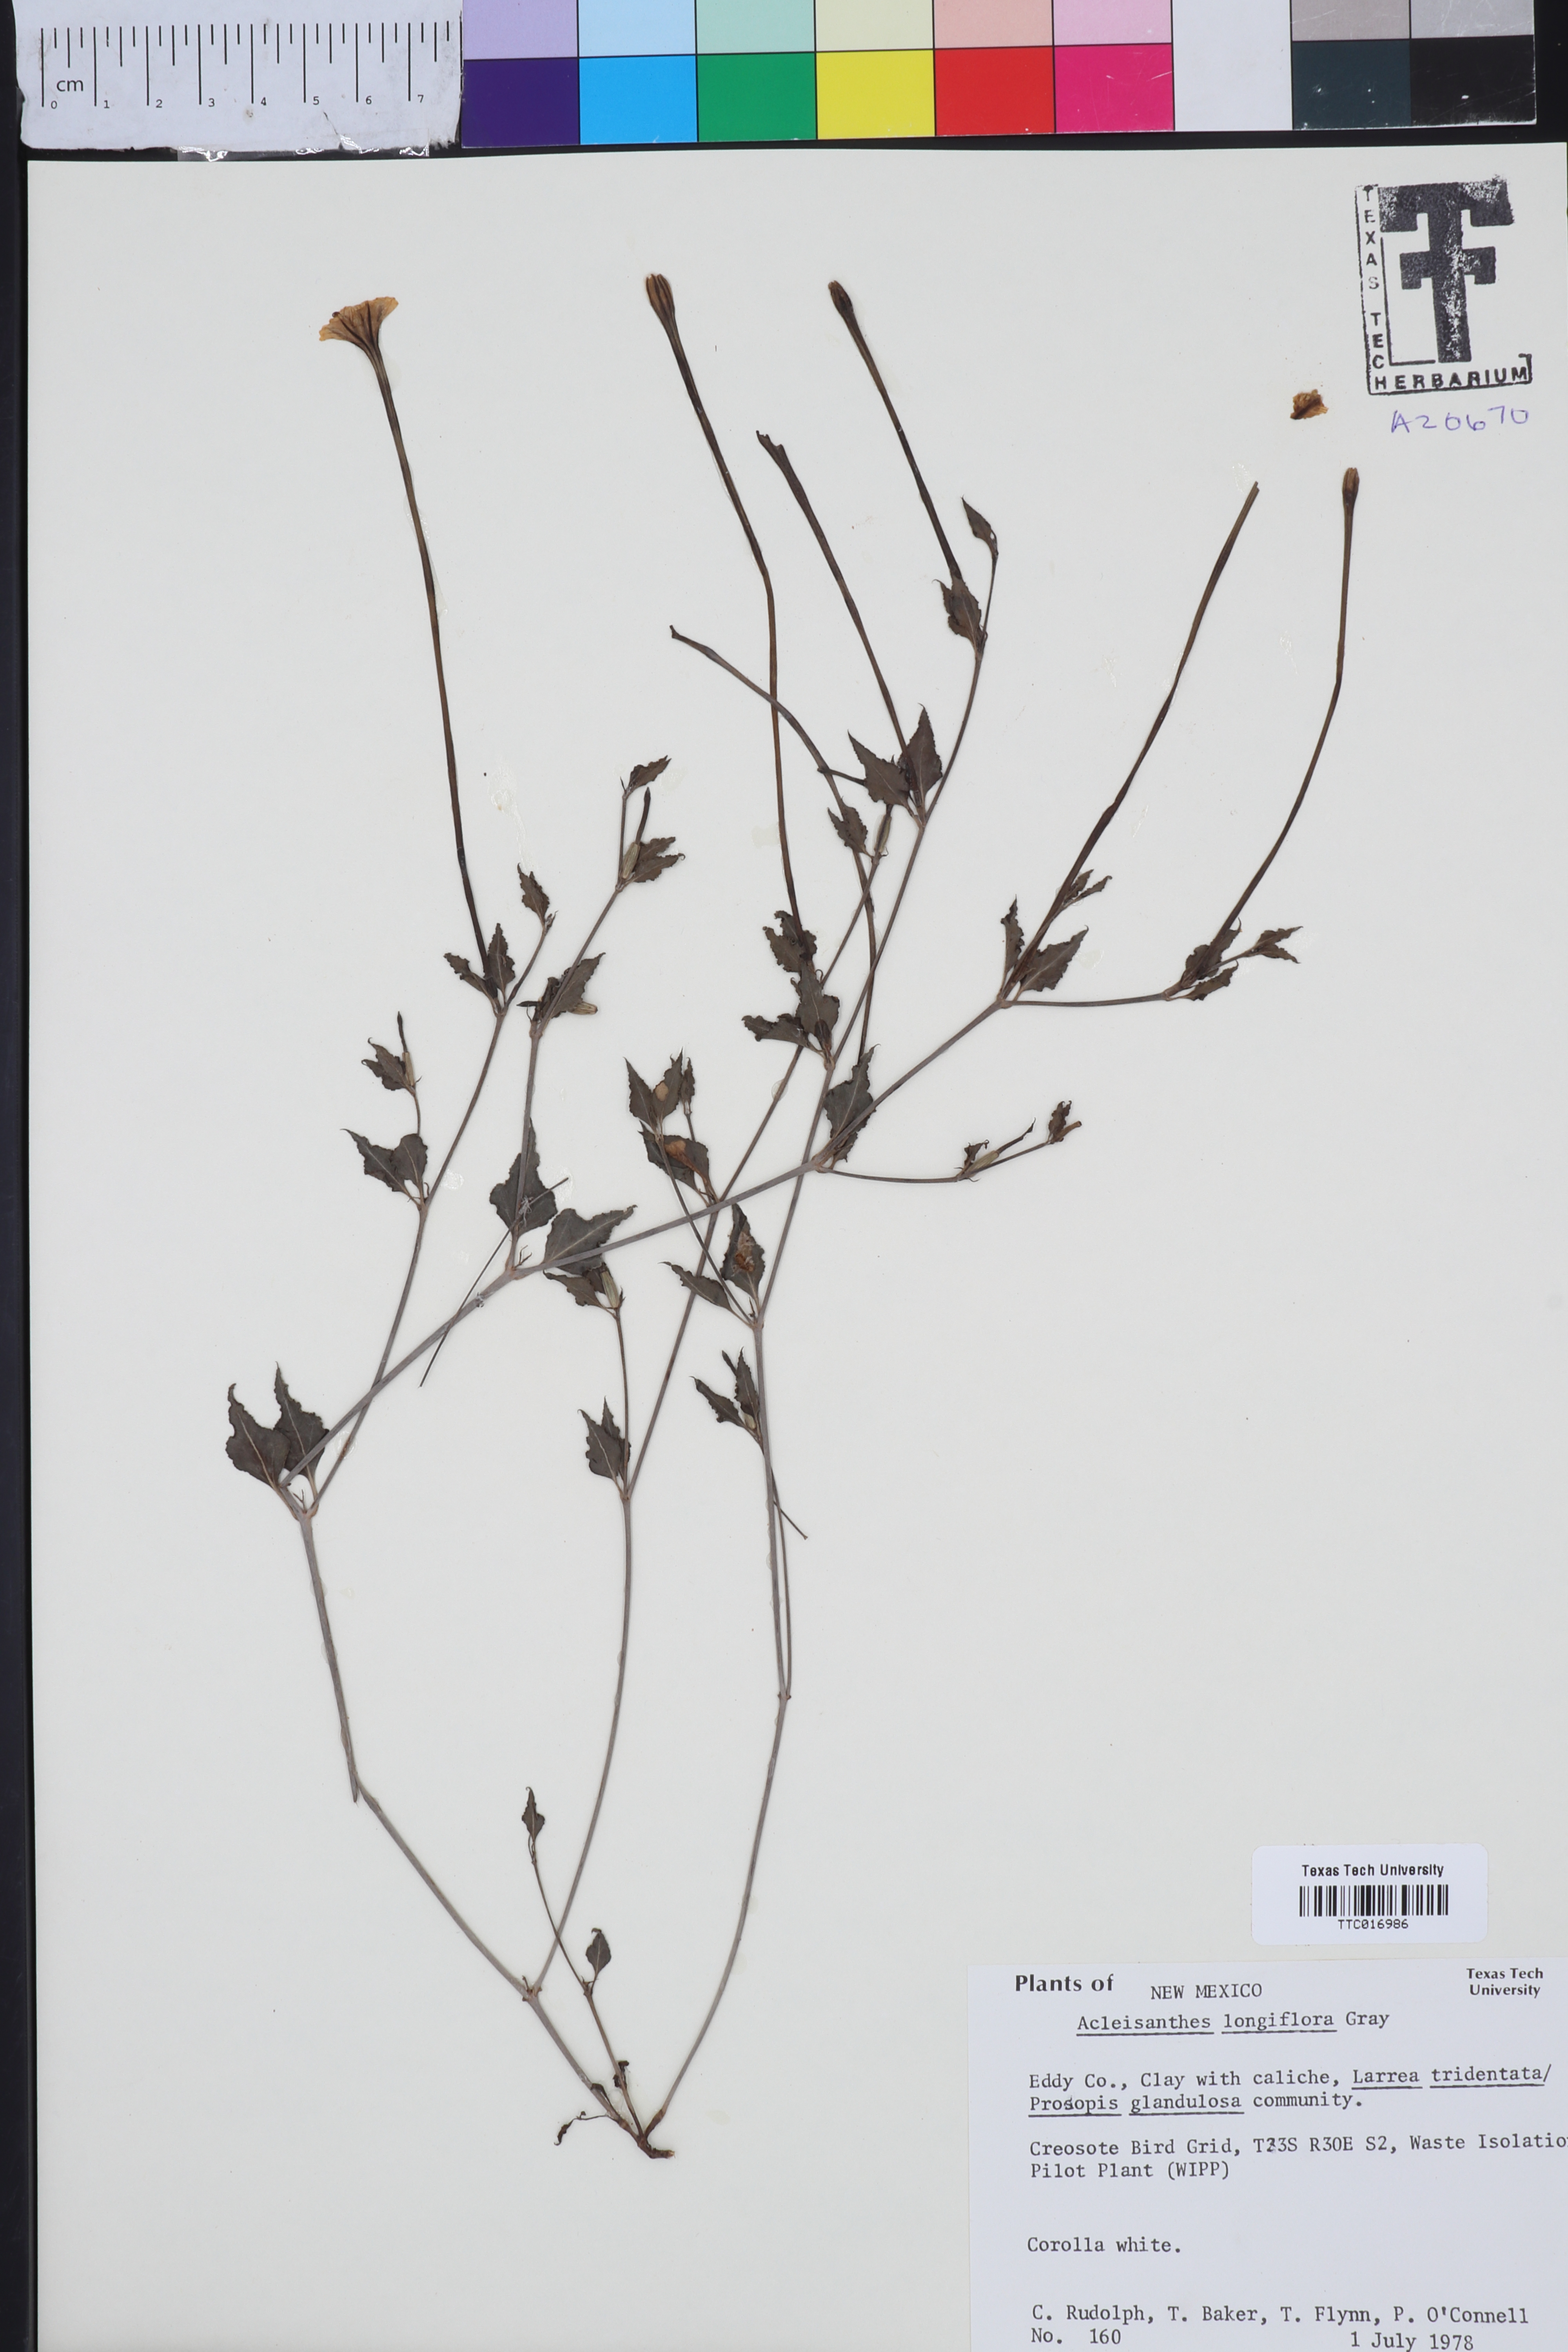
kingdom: Plantae
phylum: Tracheophyta
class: Magnoliopsida
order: Caryophyllales
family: Nyctaginaceae
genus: Acleisanthes
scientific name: Acleisanthes longiflora
